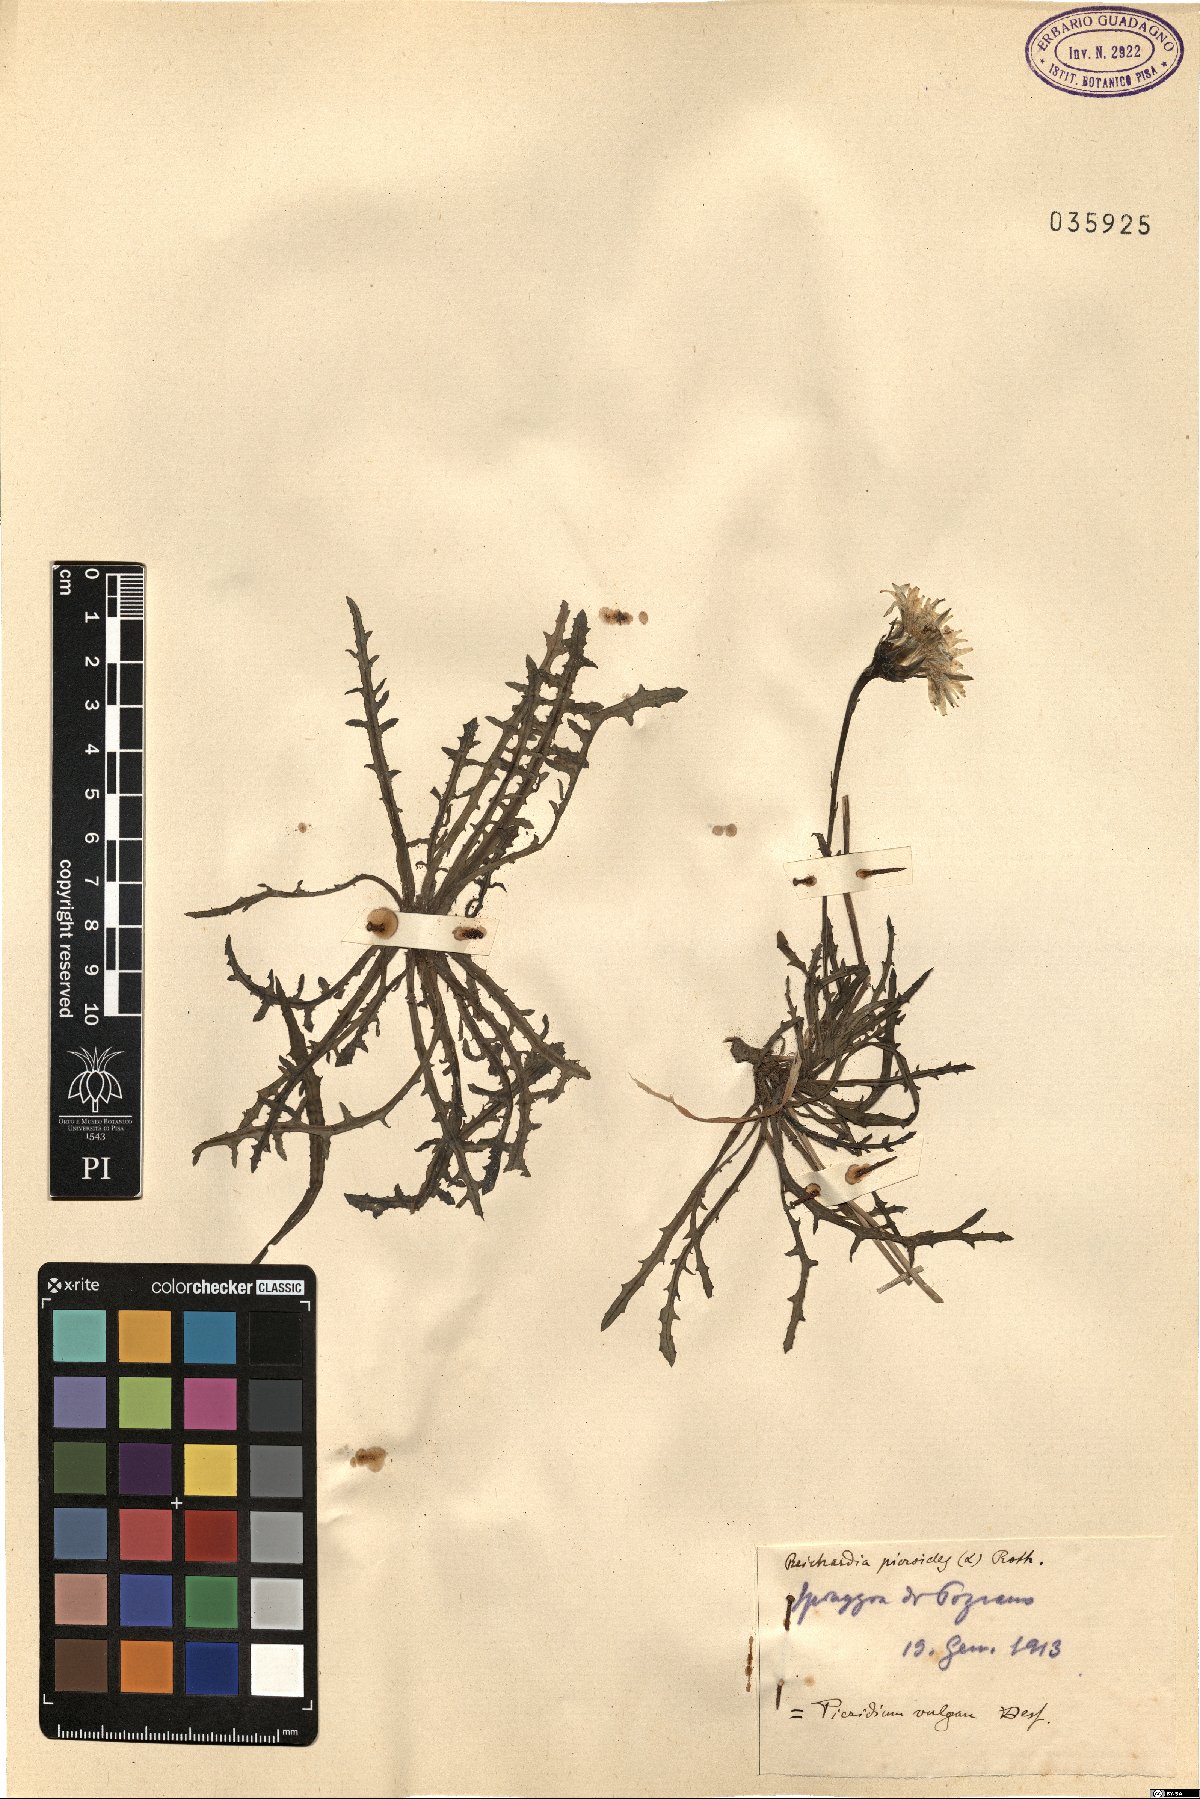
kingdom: Plantae
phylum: Tracheophyta
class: Magnoliopsida
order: Asterales
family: Asteraceae
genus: Reichardia
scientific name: Reichardia picroides
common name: Common brighteyes
